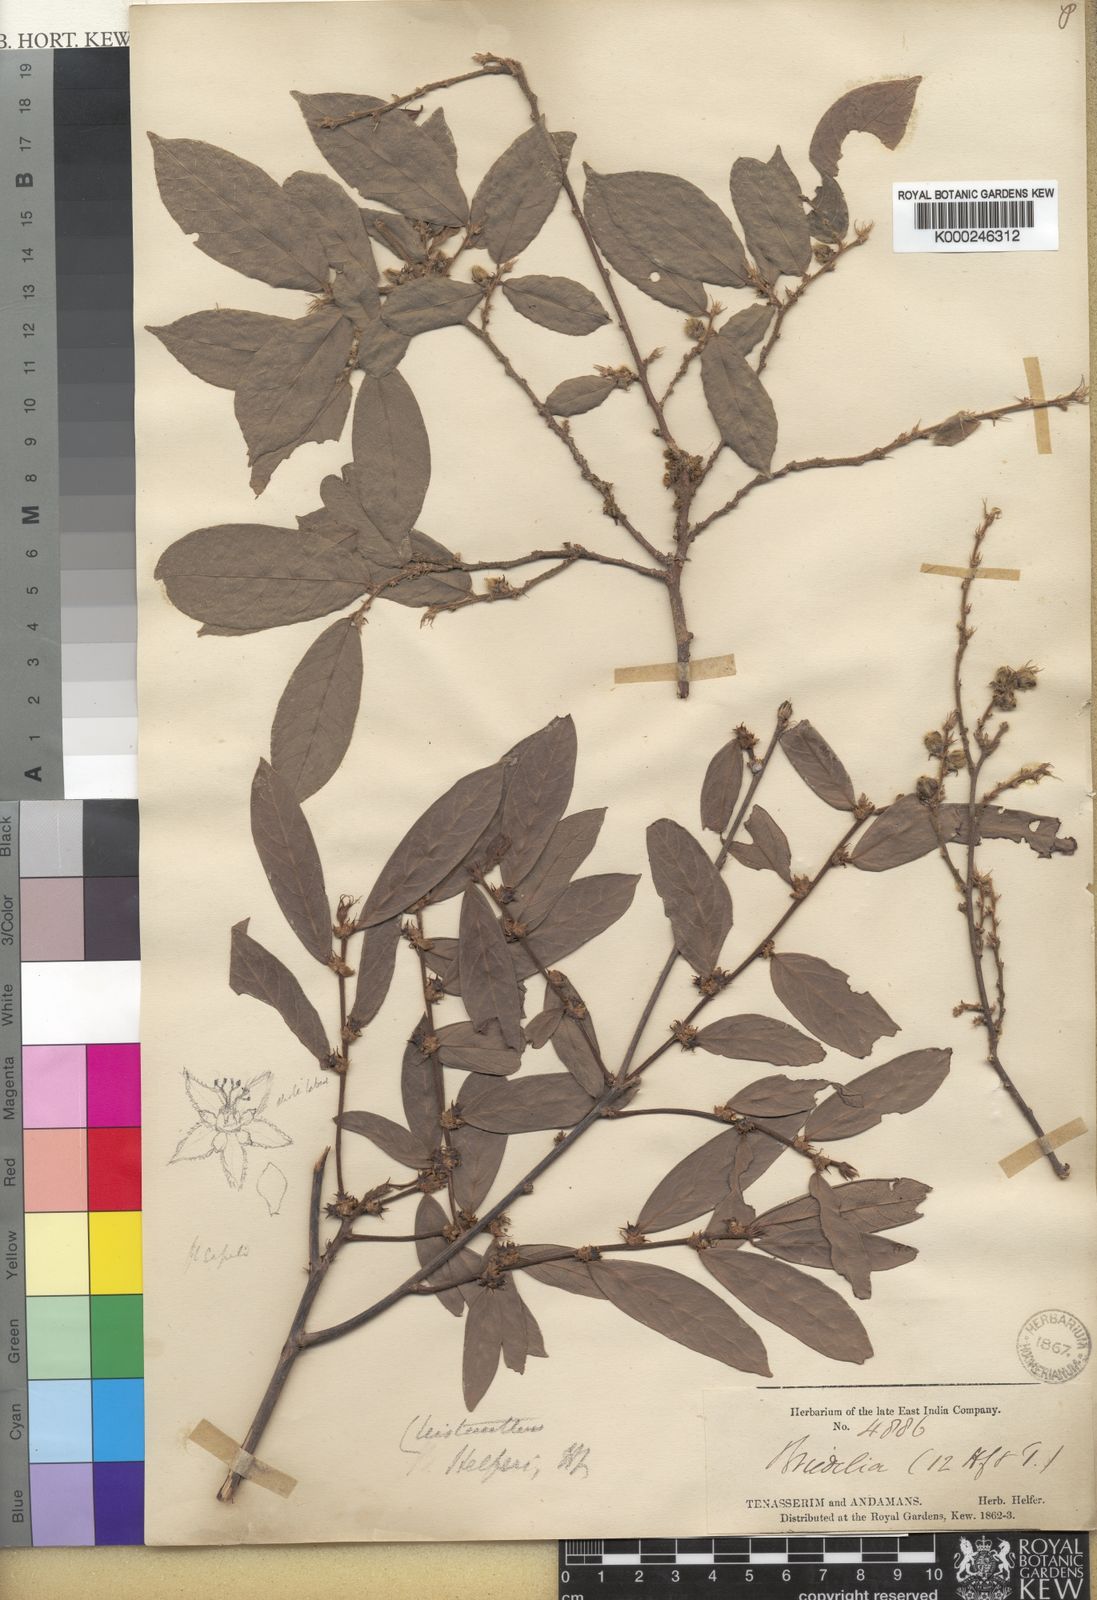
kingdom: Plantae
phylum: Tracheophyta
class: Magnoliopsida
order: Malpighiales
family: Phyllanthaceae
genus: Cleistanthus
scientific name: Cleistanthus helferi
